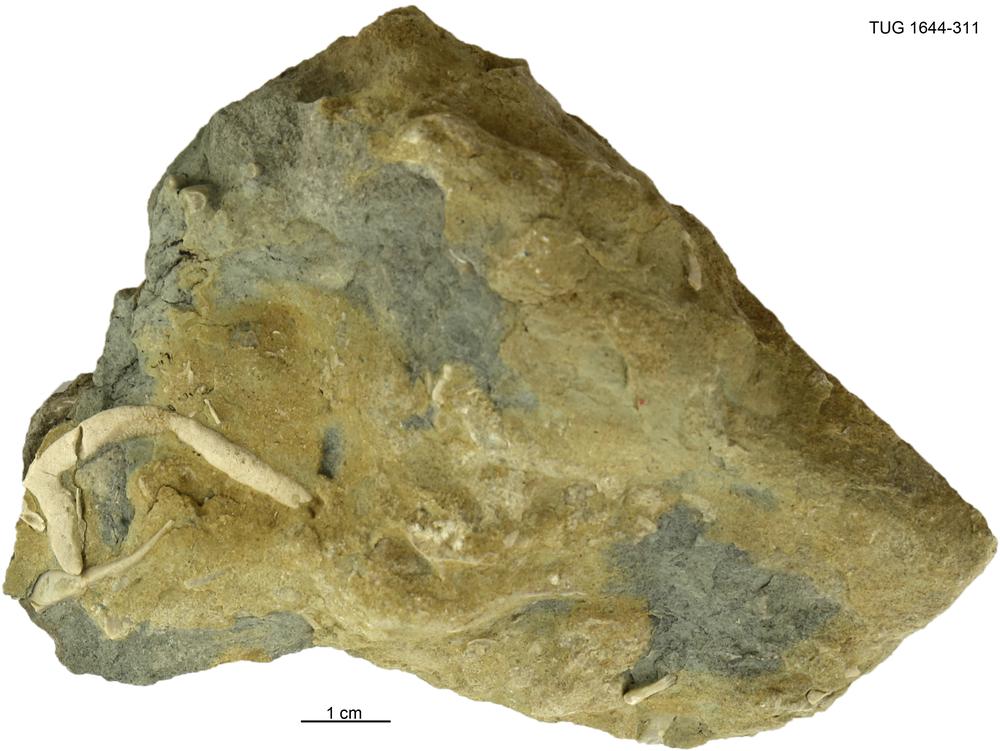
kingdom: Animalia
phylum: Bryozoa
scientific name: Bryozoa
